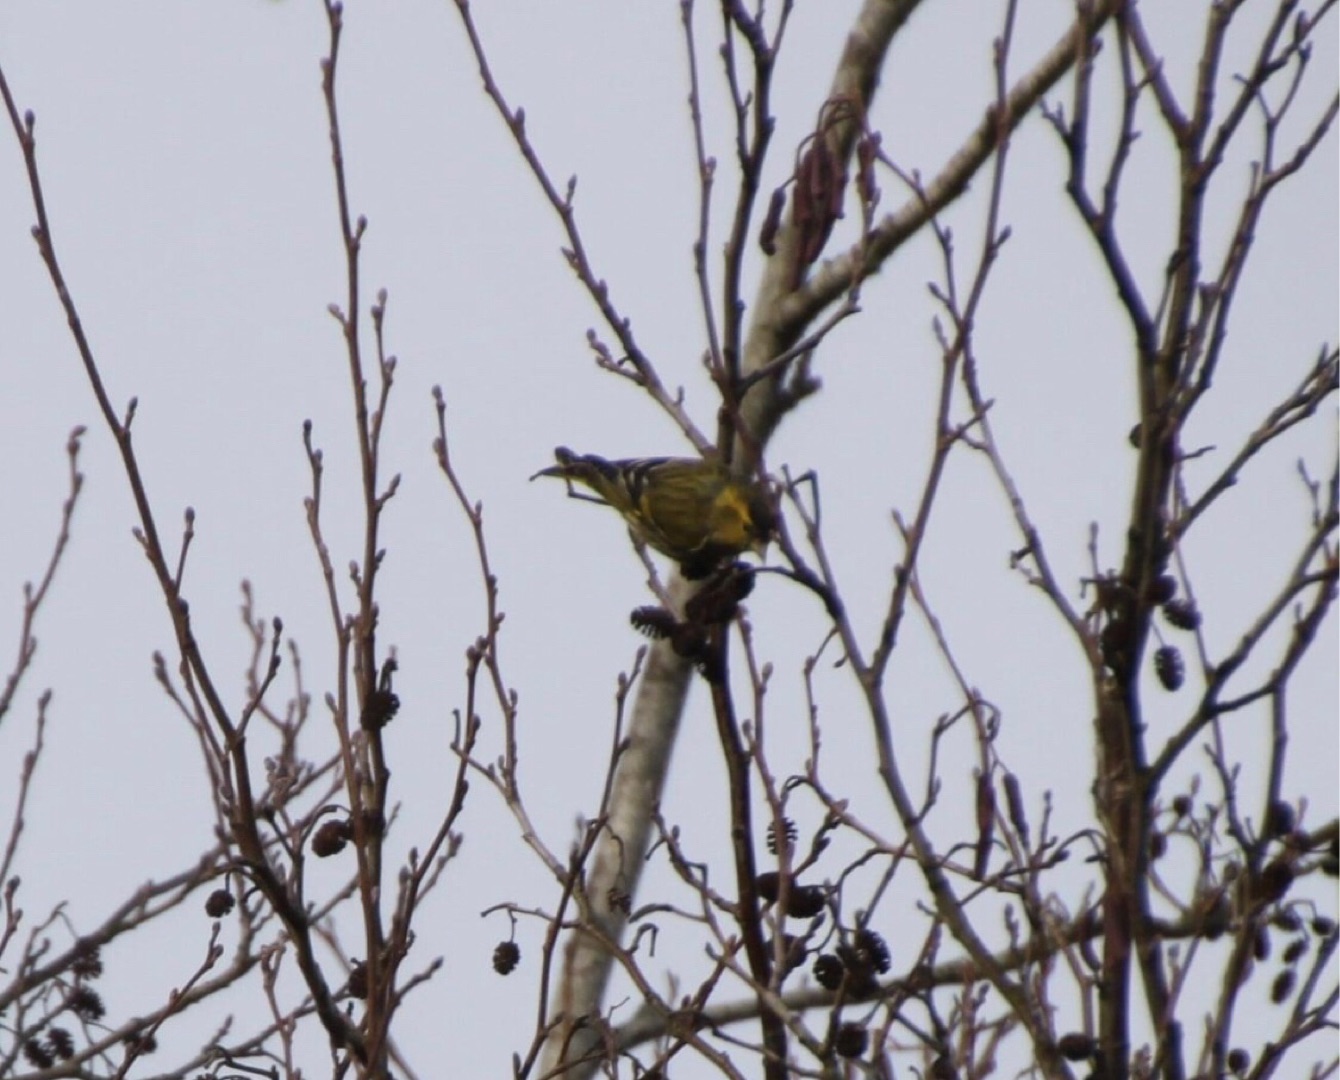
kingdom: Animalia
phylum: Chordata
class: Aves
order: Passeriformes
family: Fringillidae
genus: Spinus
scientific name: Spinus spinus
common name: Grønsisken
